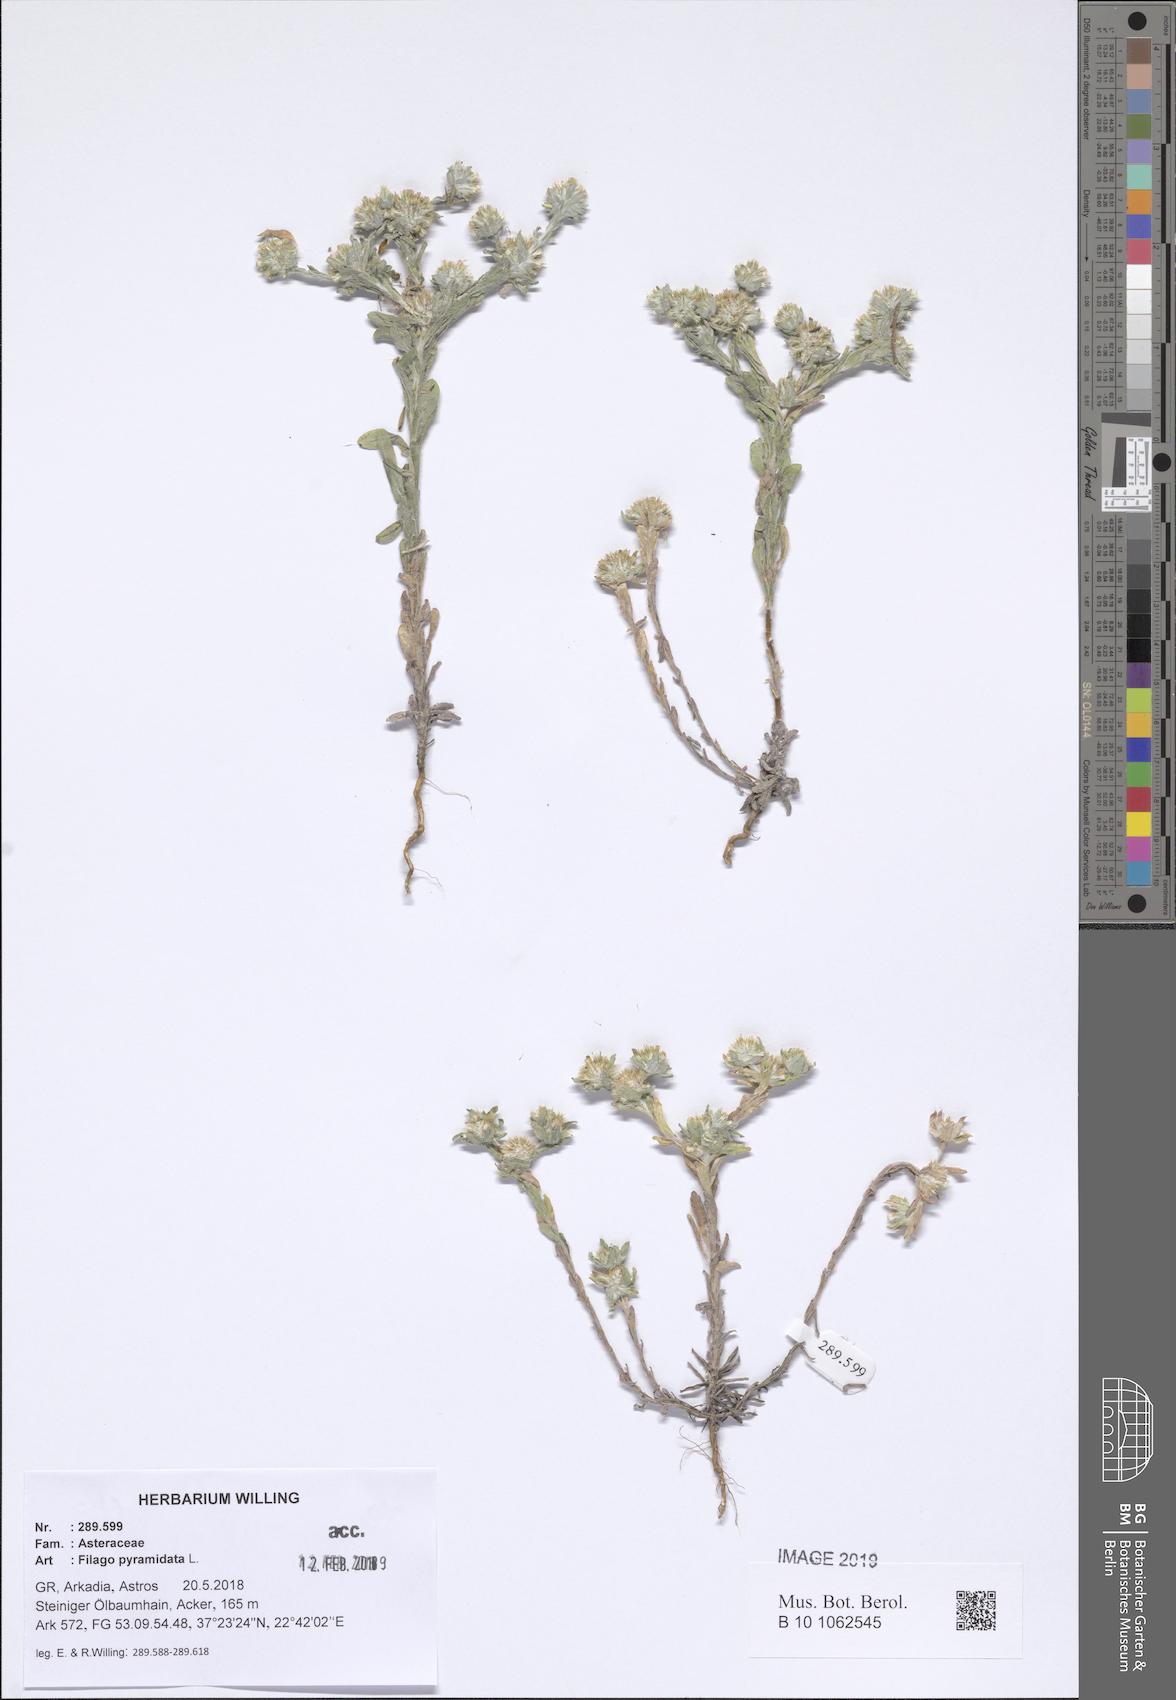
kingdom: Plantae
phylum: Tracheophyta
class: Magnoliopsida
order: Asterales
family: Asteraceae
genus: Filago
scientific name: Filago pyramidata
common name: Broad-leaved cudweed
